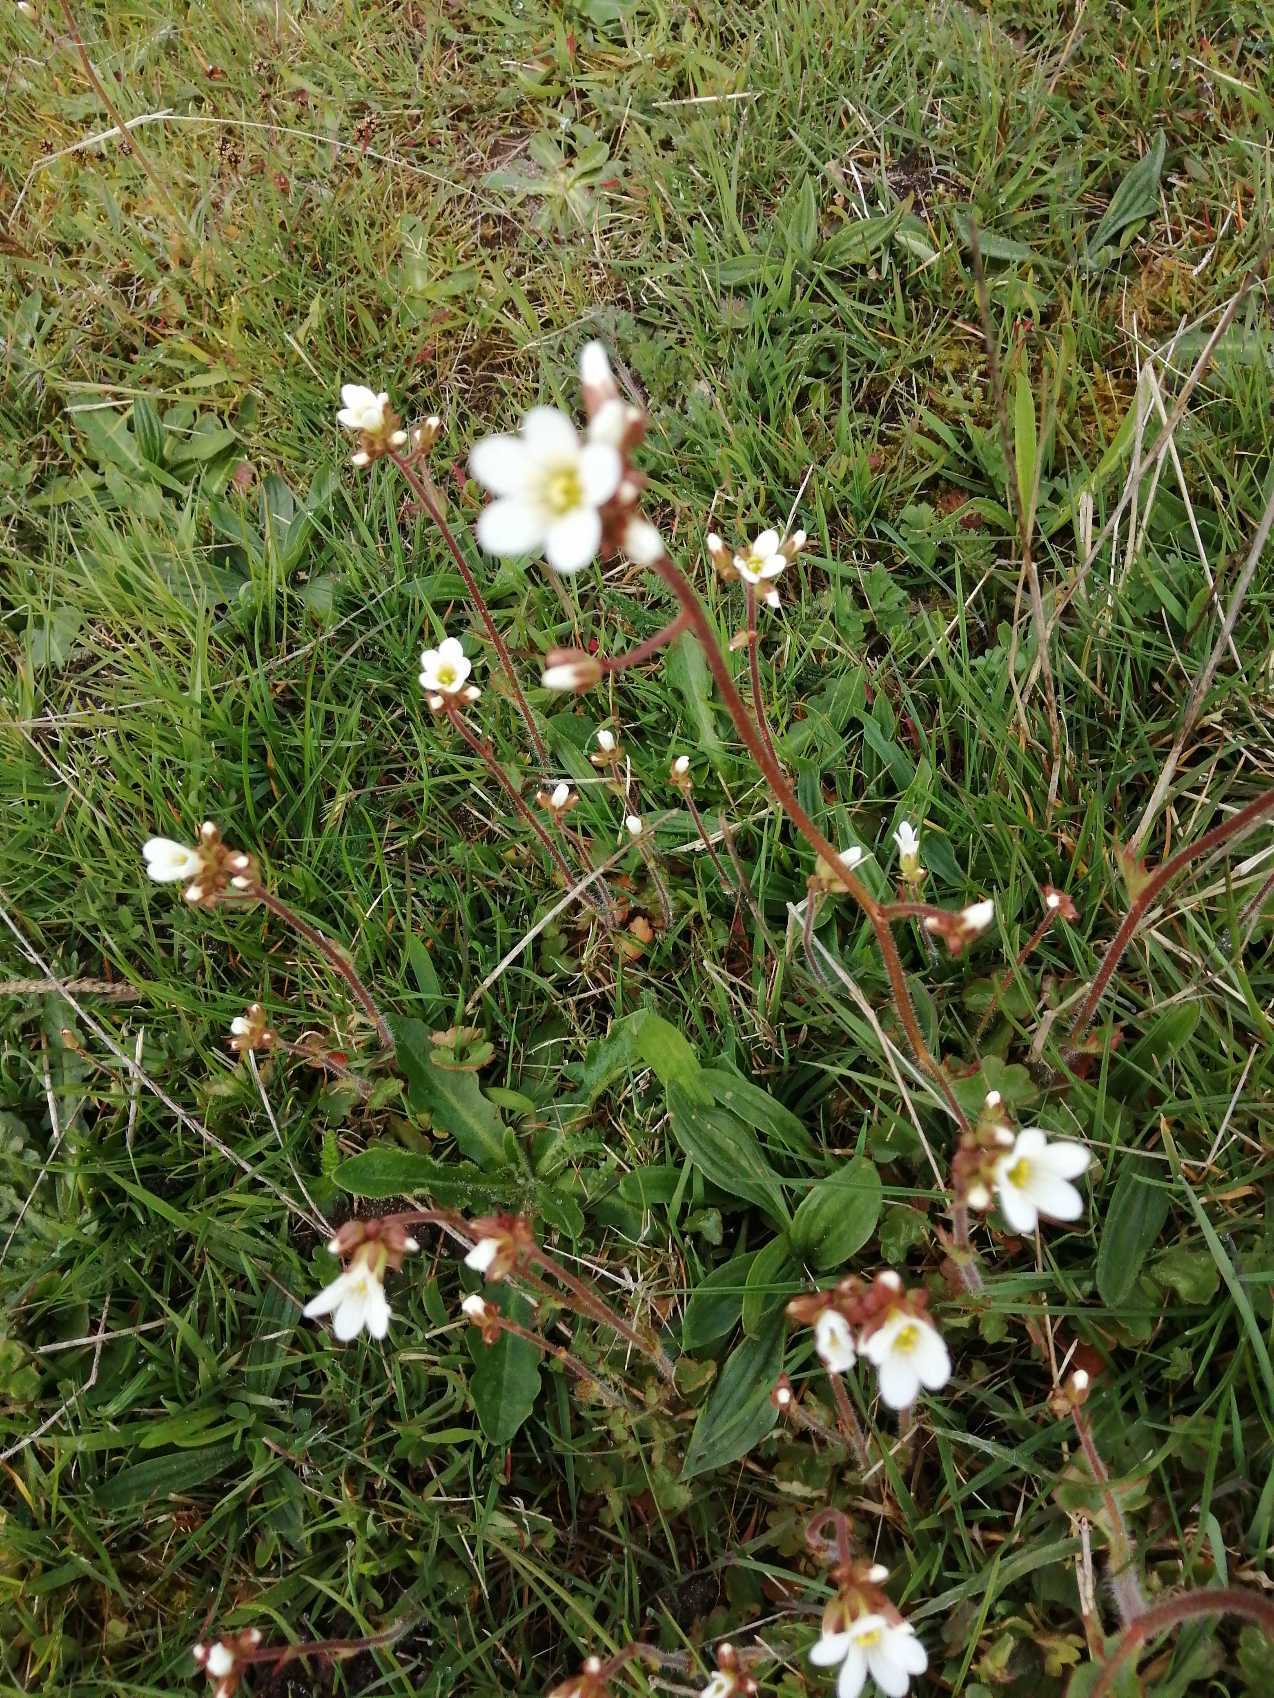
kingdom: Plantae
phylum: Tracheophyta
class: Magnoliopsida
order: Saxifragales
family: Saxifragaceae
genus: Saxifraga
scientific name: Saxifraga granulata
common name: Kornet stenbræk
